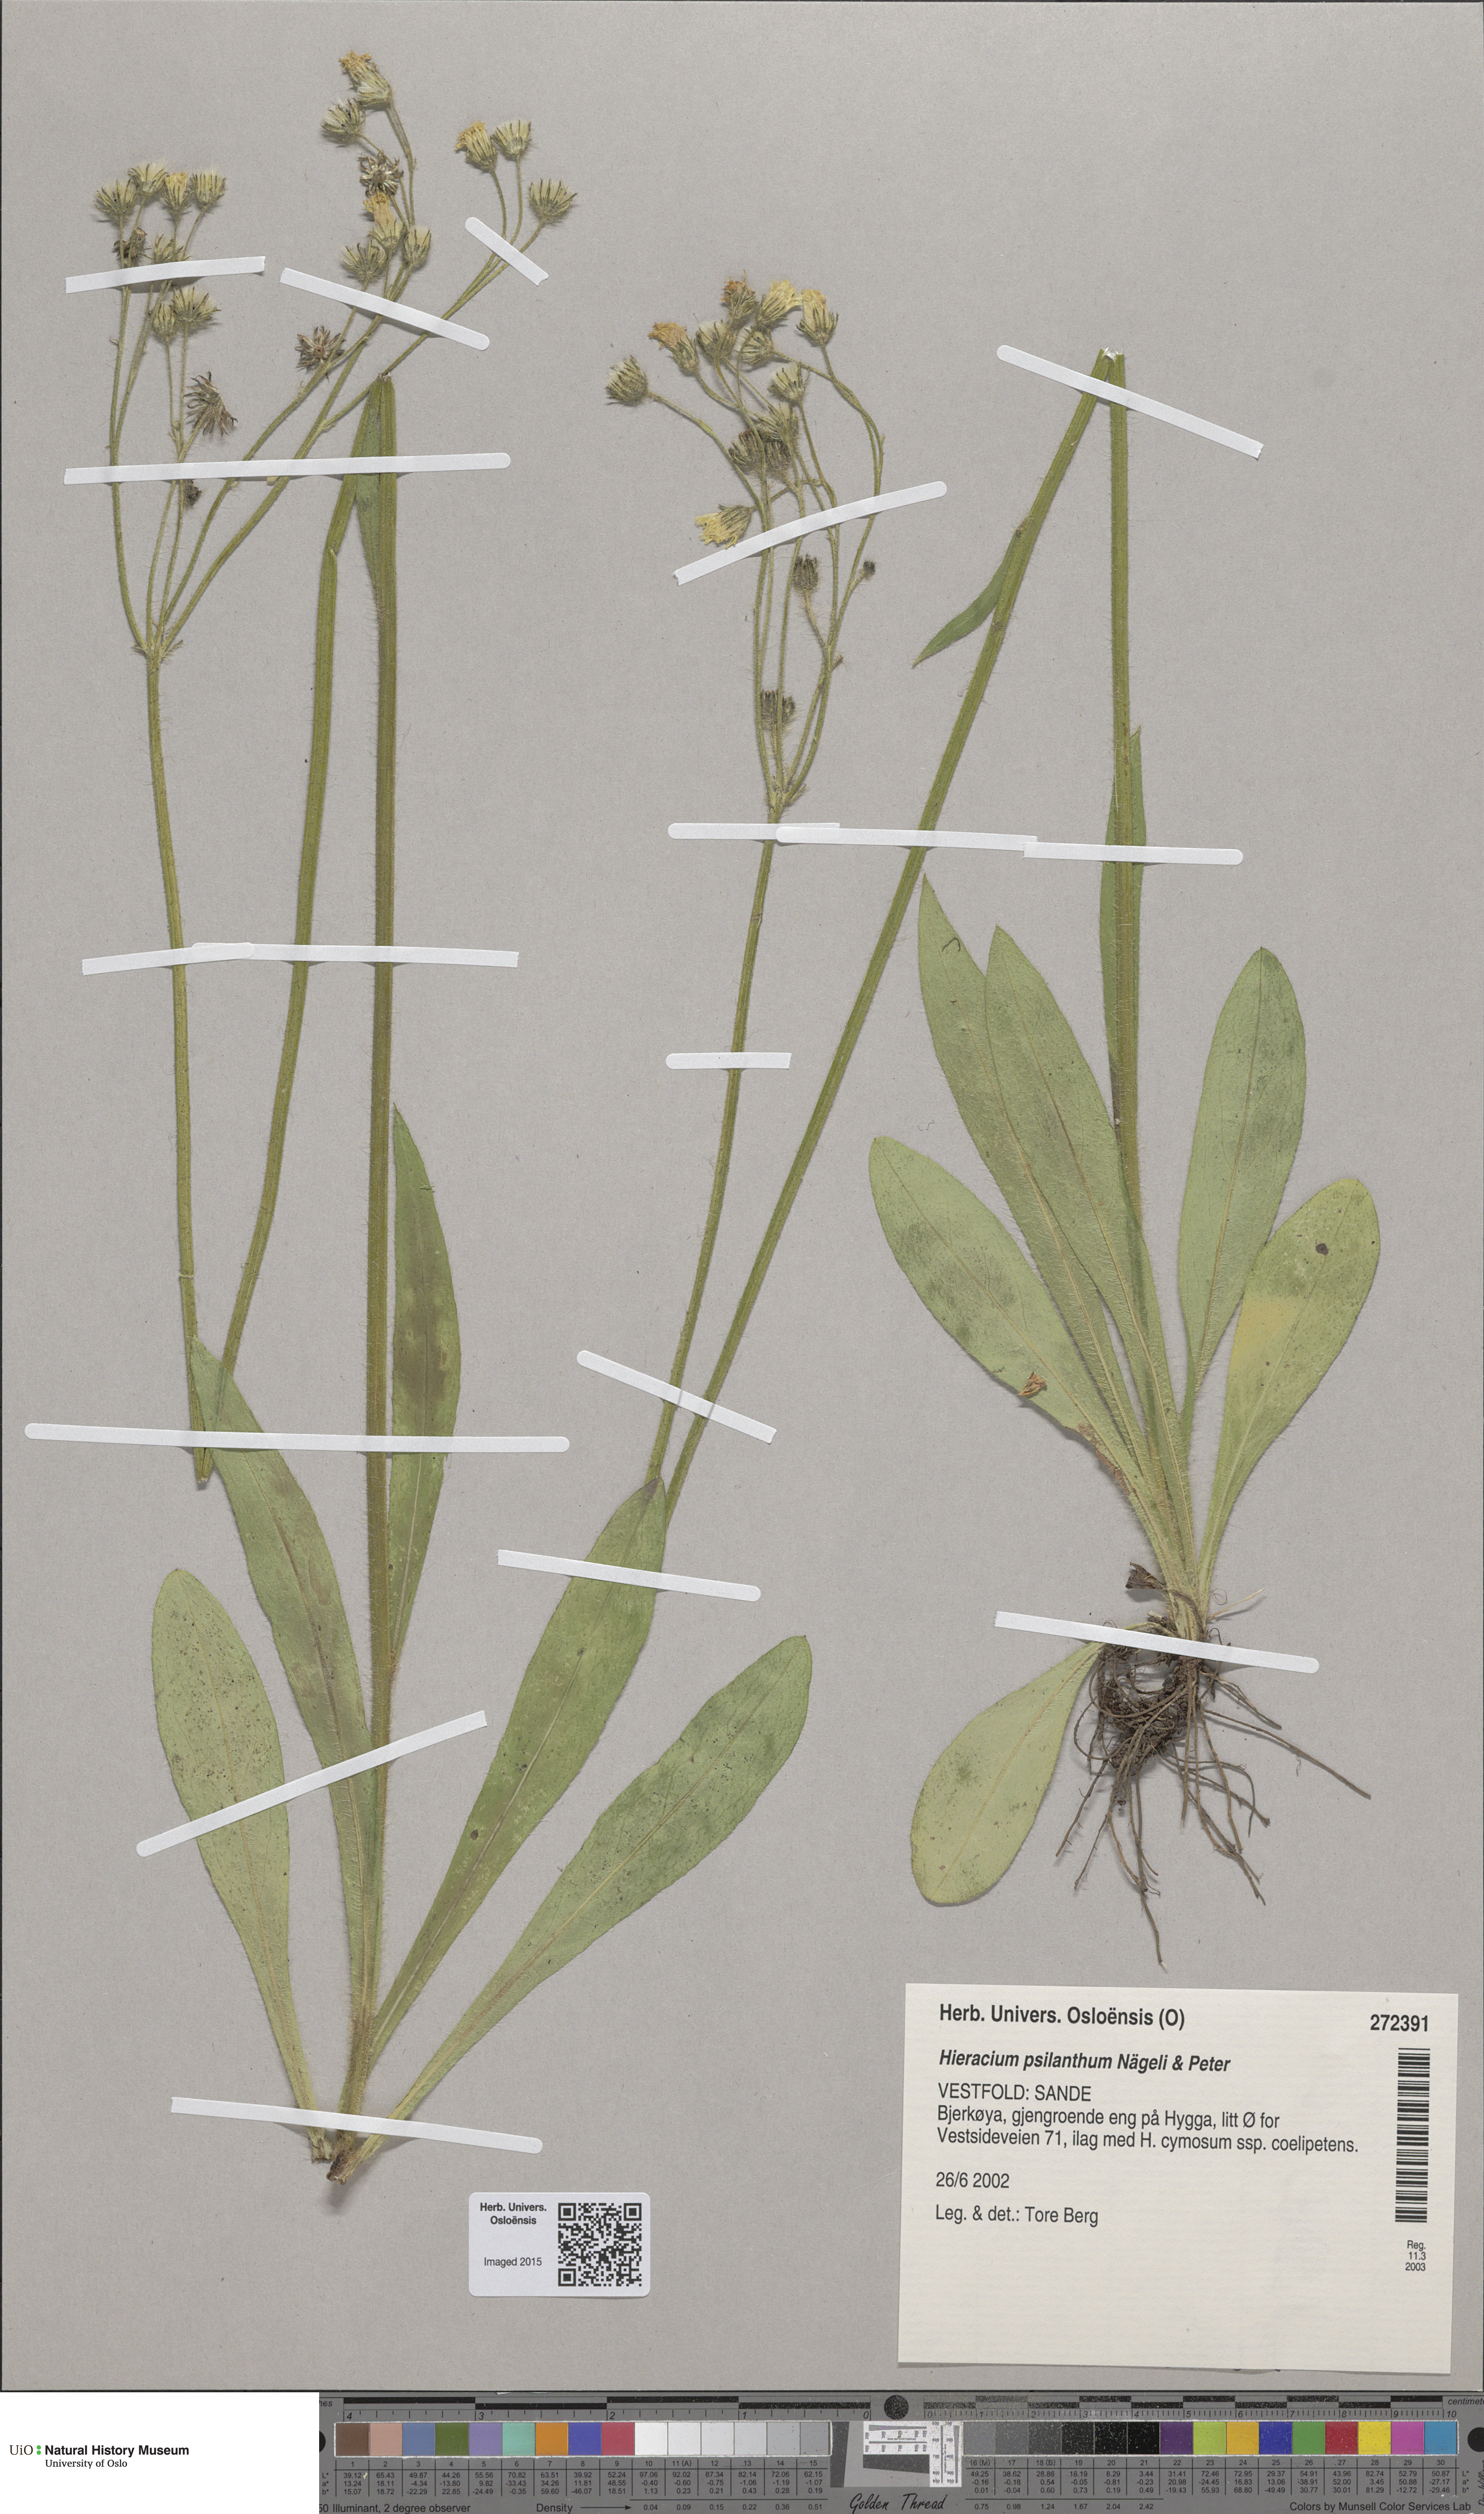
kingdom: Plantae
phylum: Tracheophyta
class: Magnoliopsida
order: Asterales
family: Asteraceae
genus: Pilosella
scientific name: Pilosella cymosa
